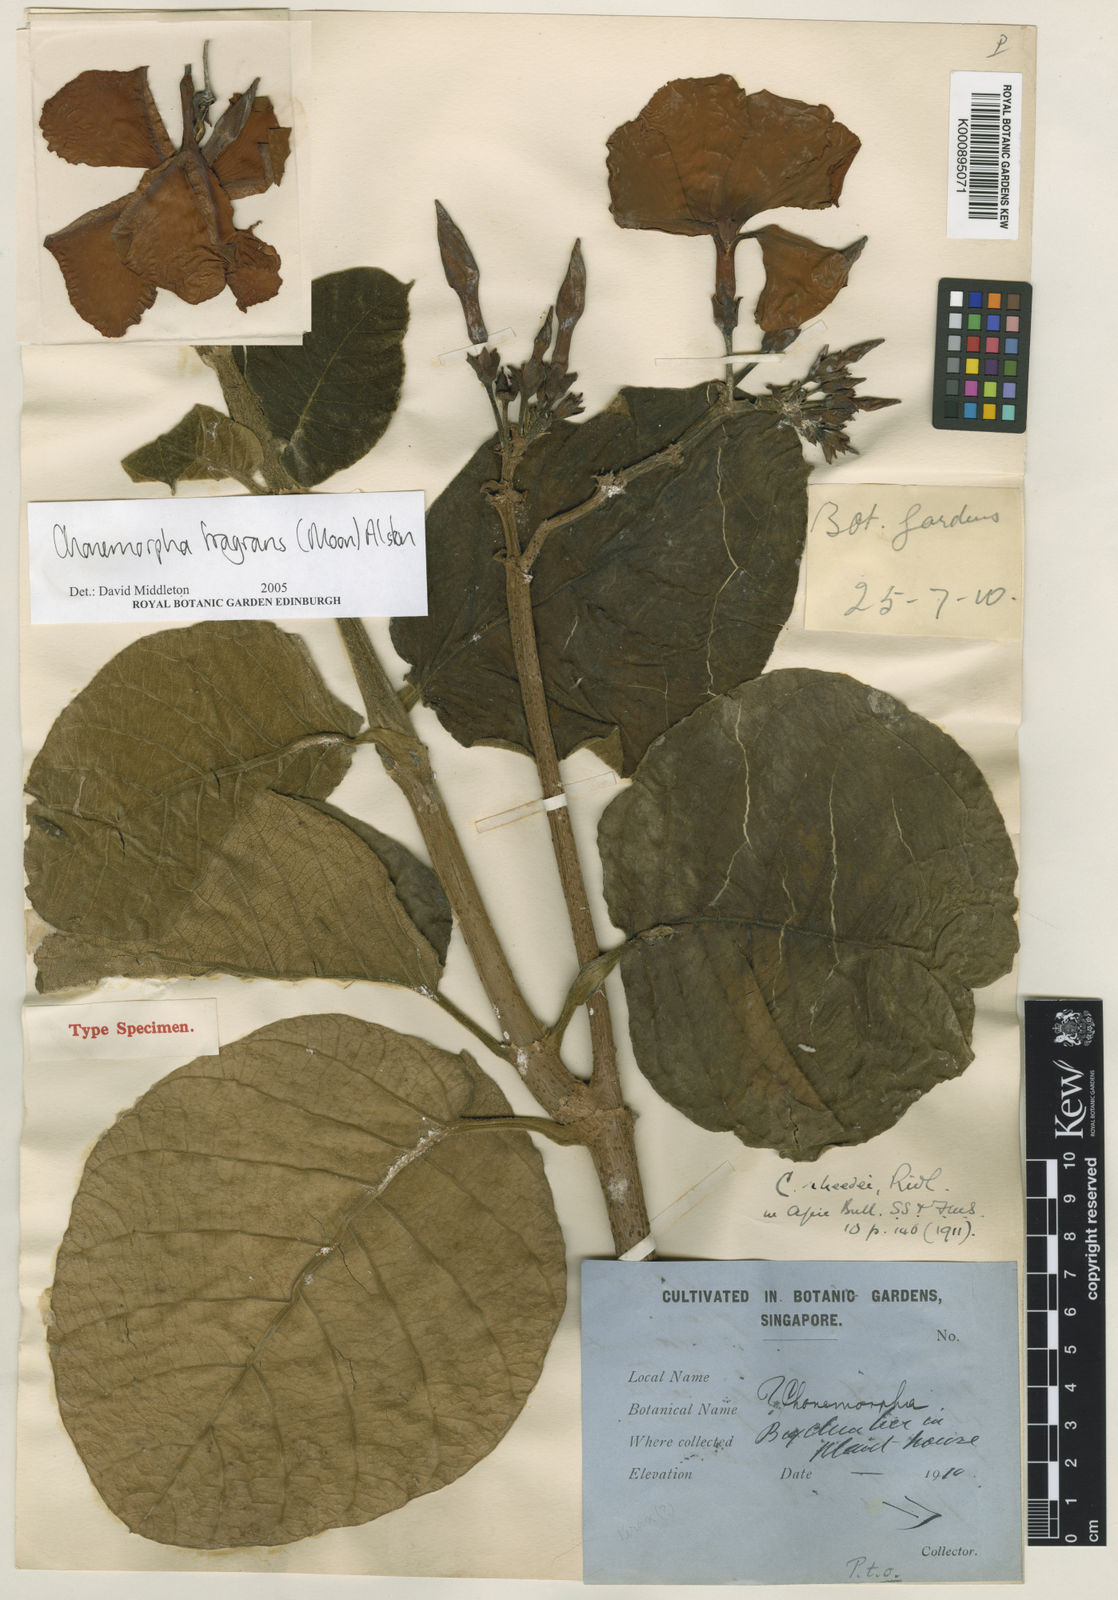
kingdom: Plantae
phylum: Tracheophyta
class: Magnoliopsida
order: Gentianales
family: Apocynaceae
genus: Chonemorpha
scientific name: Chonemorpha fragrans
